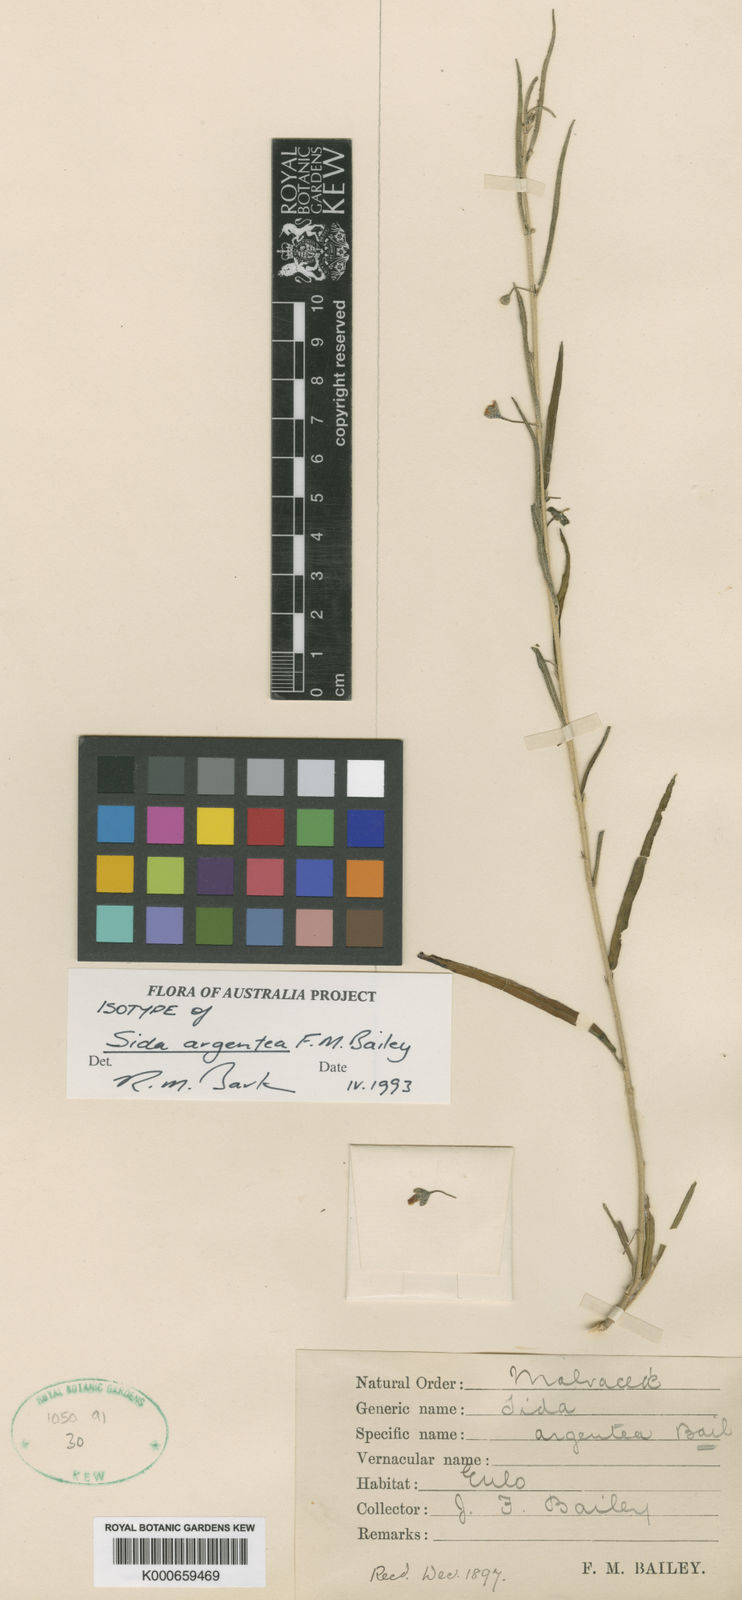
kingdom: Plantae
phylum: Tracheophyta
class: Magnoliopsida
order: Malvales
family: Malvaceae
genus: Sida
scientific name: Sida argentea
